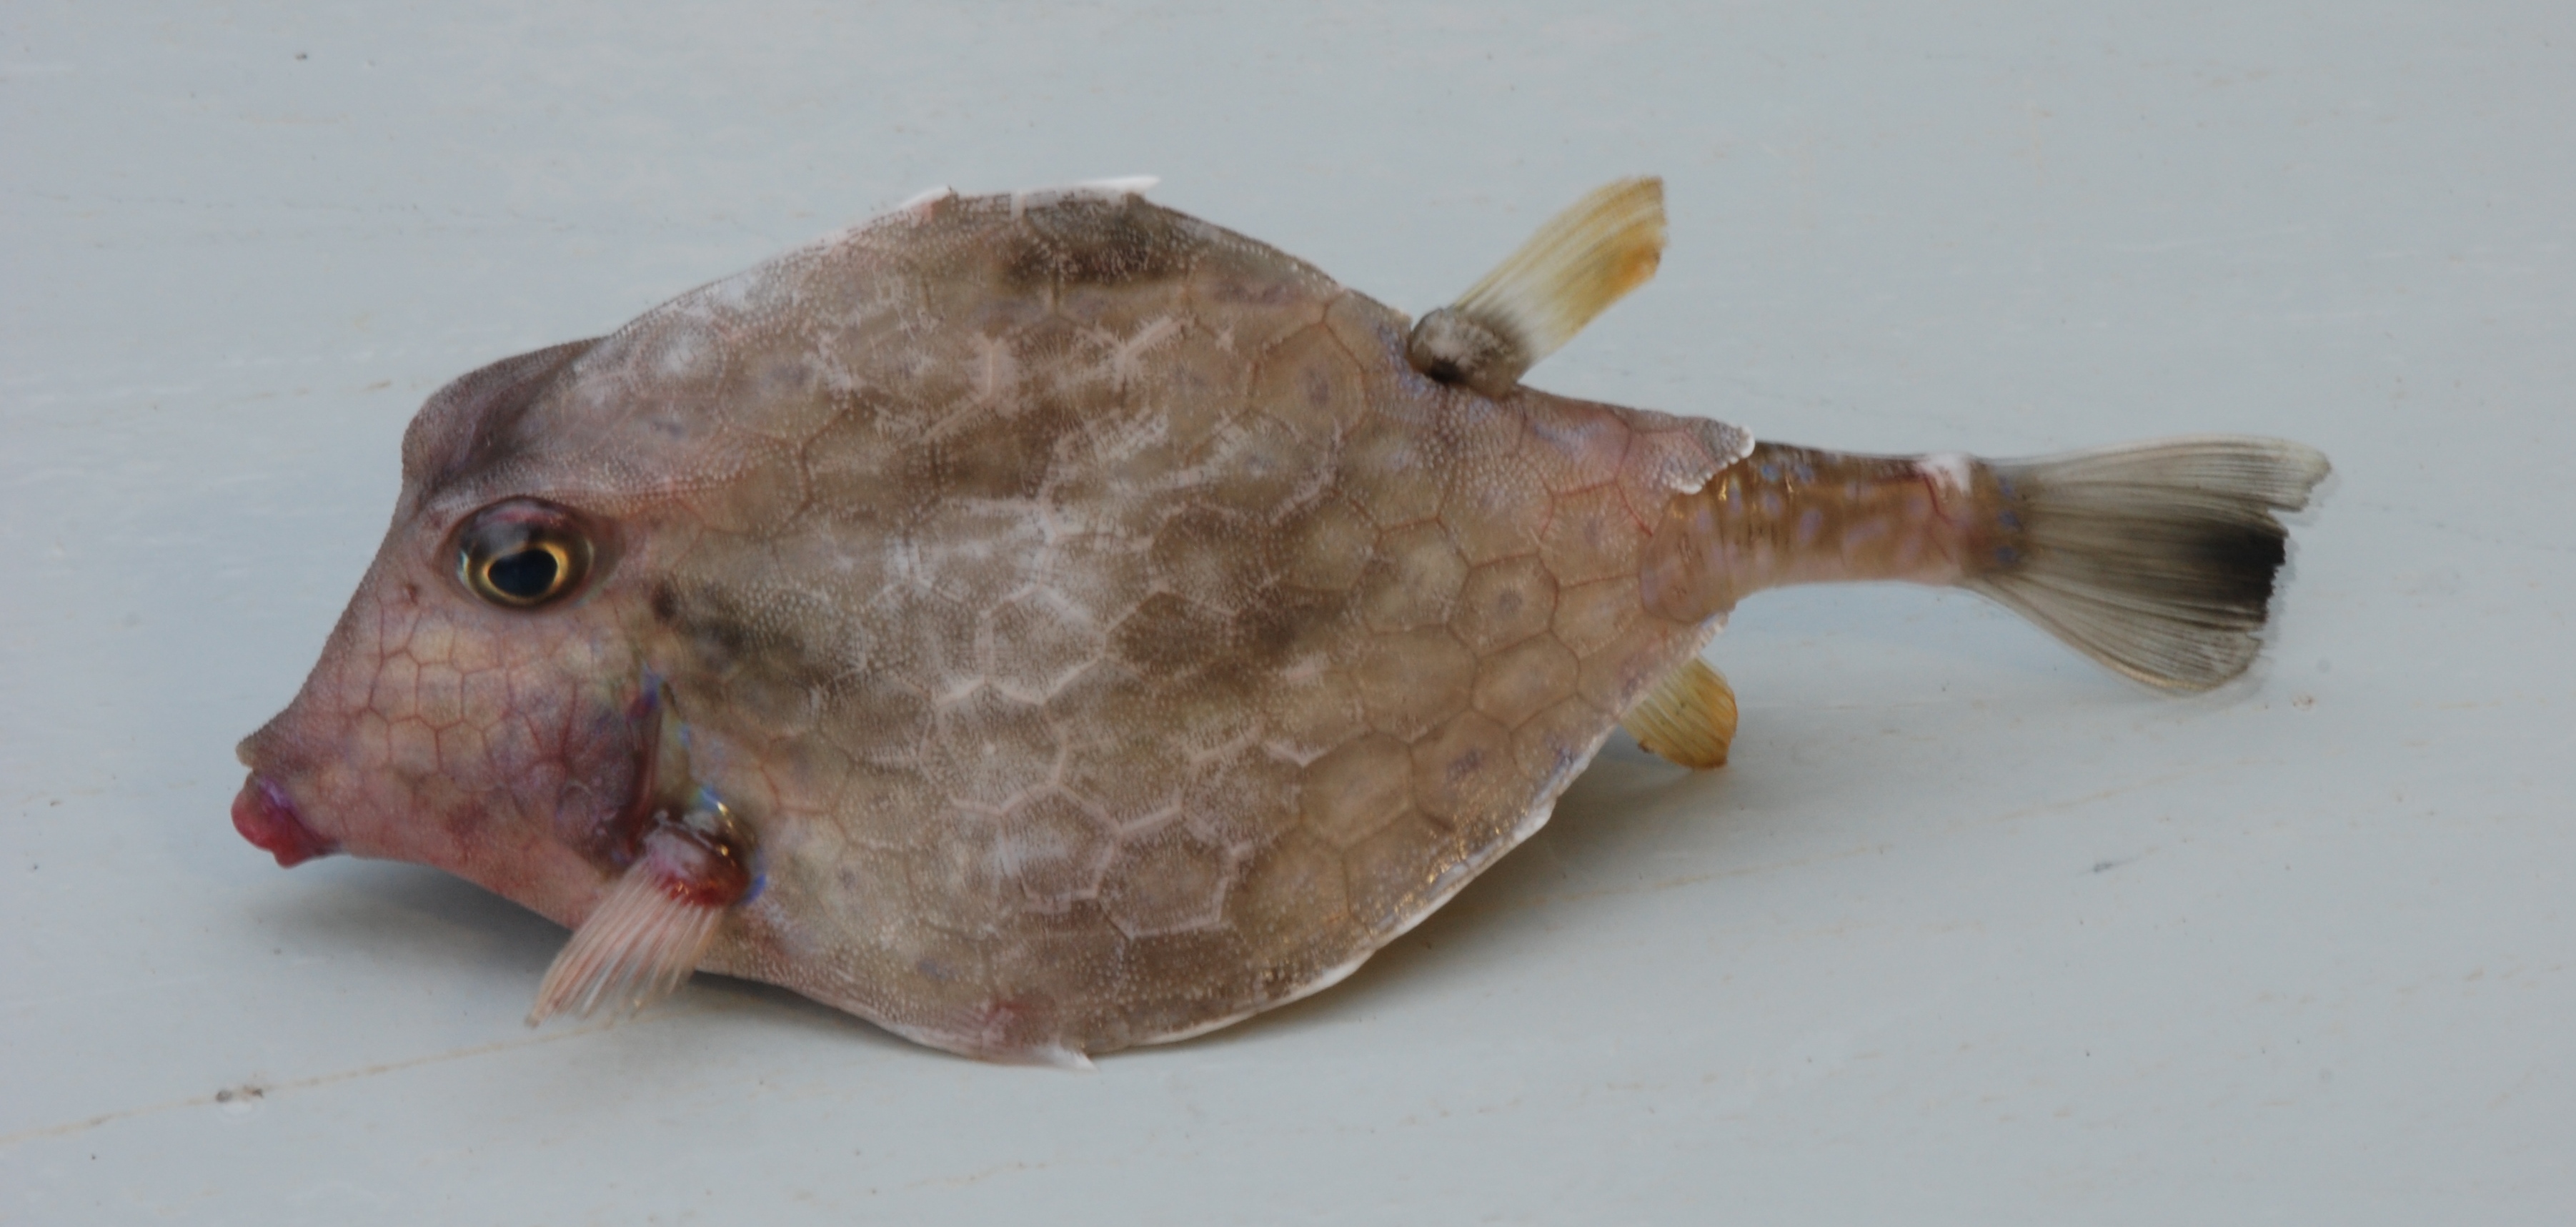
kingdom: Animalia
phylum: Chordata
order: Tetraodontiformes
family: Ostraciidae
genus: Tetrosomus
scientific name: Tetrosomus concatenatus
